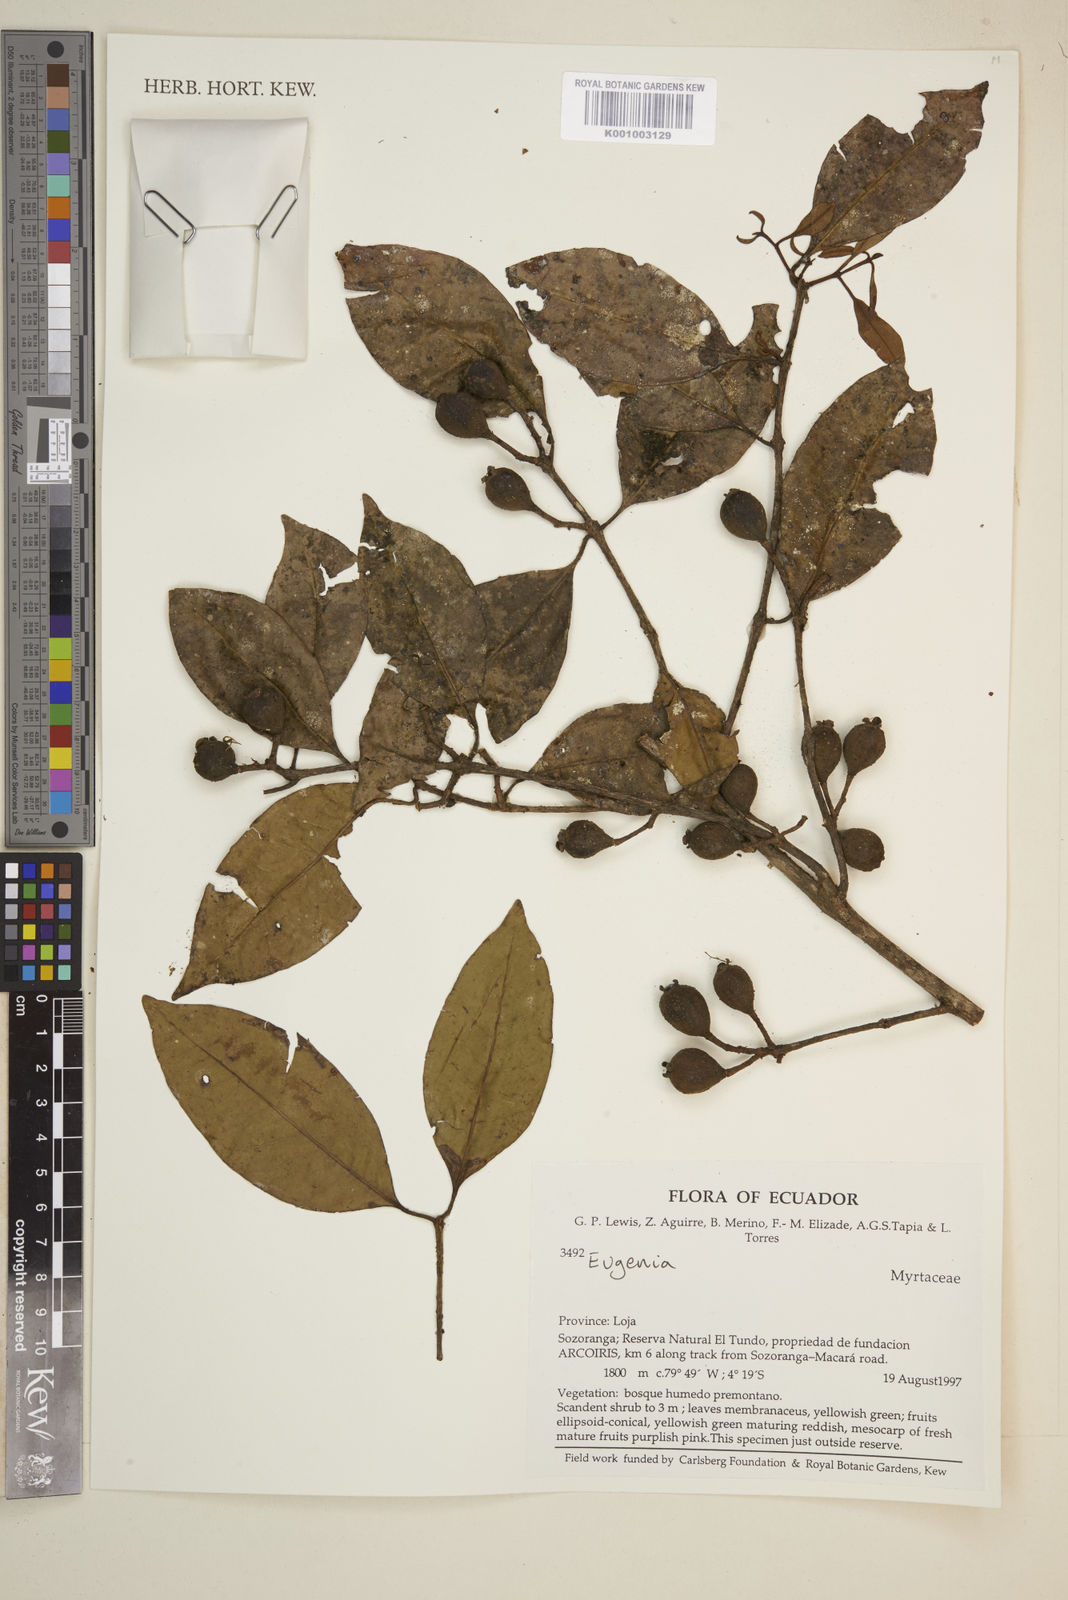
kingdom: Plantae
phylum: Tracheophyta
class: Magnoliopsida
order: Myrtales
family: Myrtaceae
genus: Eugenia
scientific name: Eugenia
